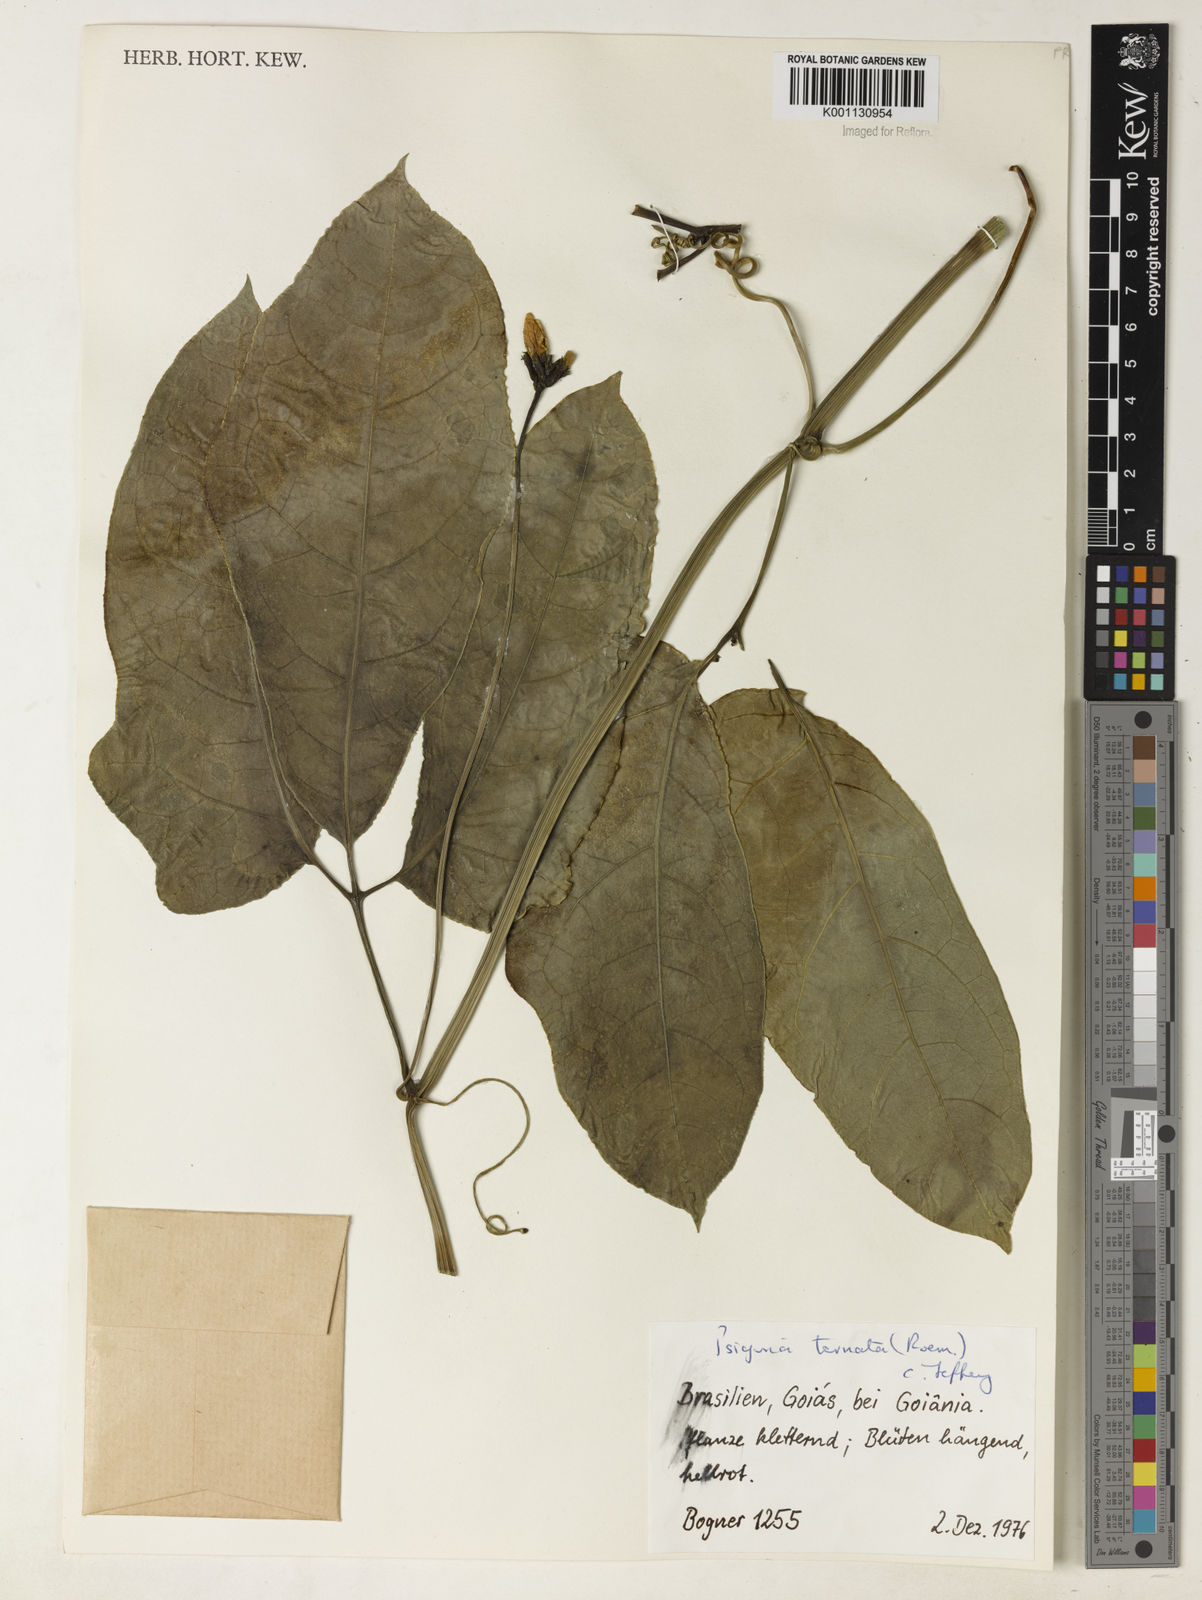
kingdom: Plantae
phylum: Tracheophyta
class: Magnoliopsida
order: Cucurbitales
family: Cucurbitaceae
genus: Psiguria
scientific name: Psiguria ternata
